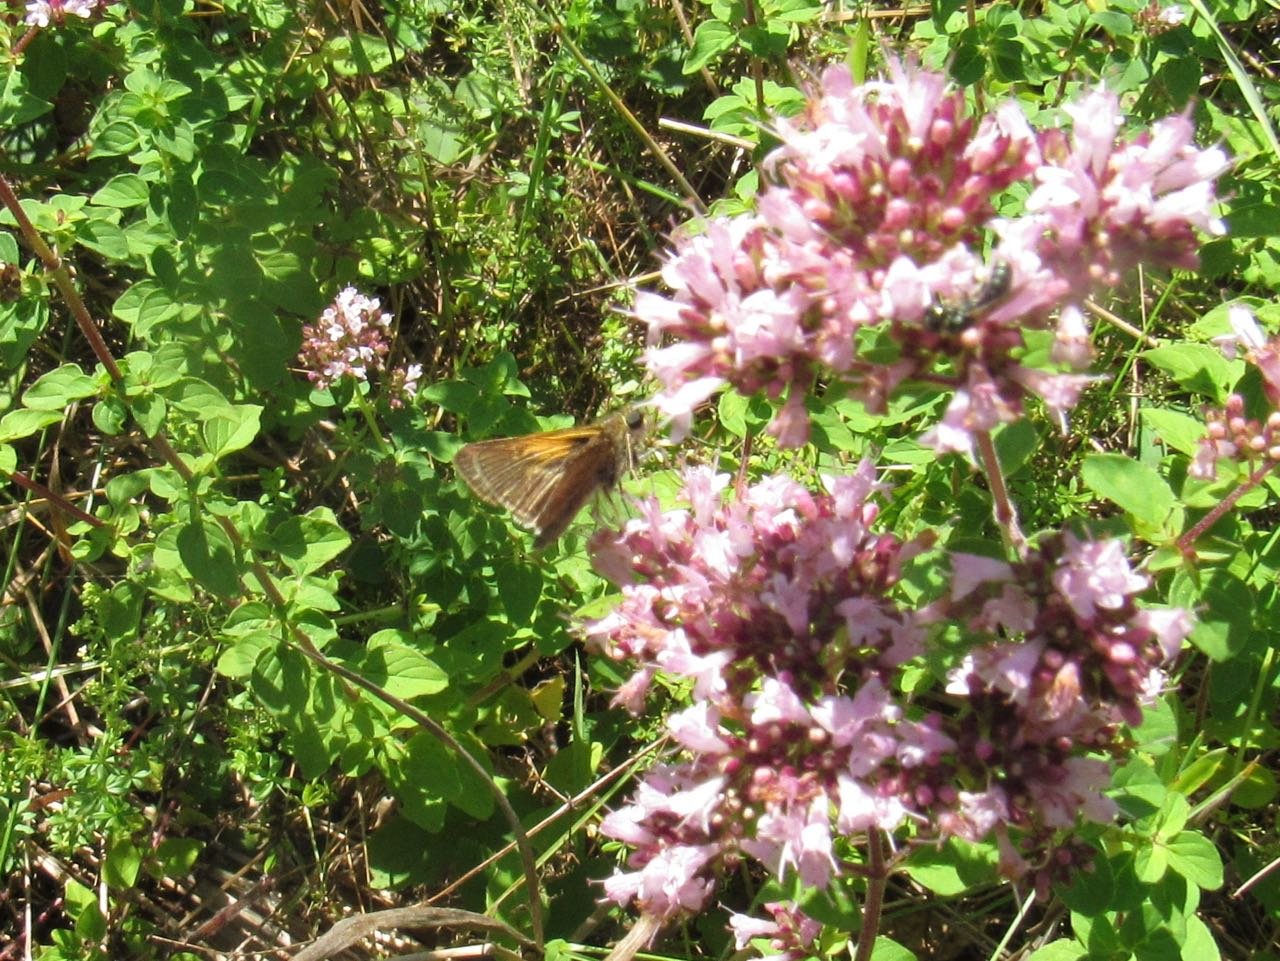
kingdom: Animalia
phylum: Arthropoda
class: Insecta
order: Lepidoptera
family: Hesperiidae
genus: Polites
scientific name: Polites themistocles
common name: Tawny-edged Skipper
